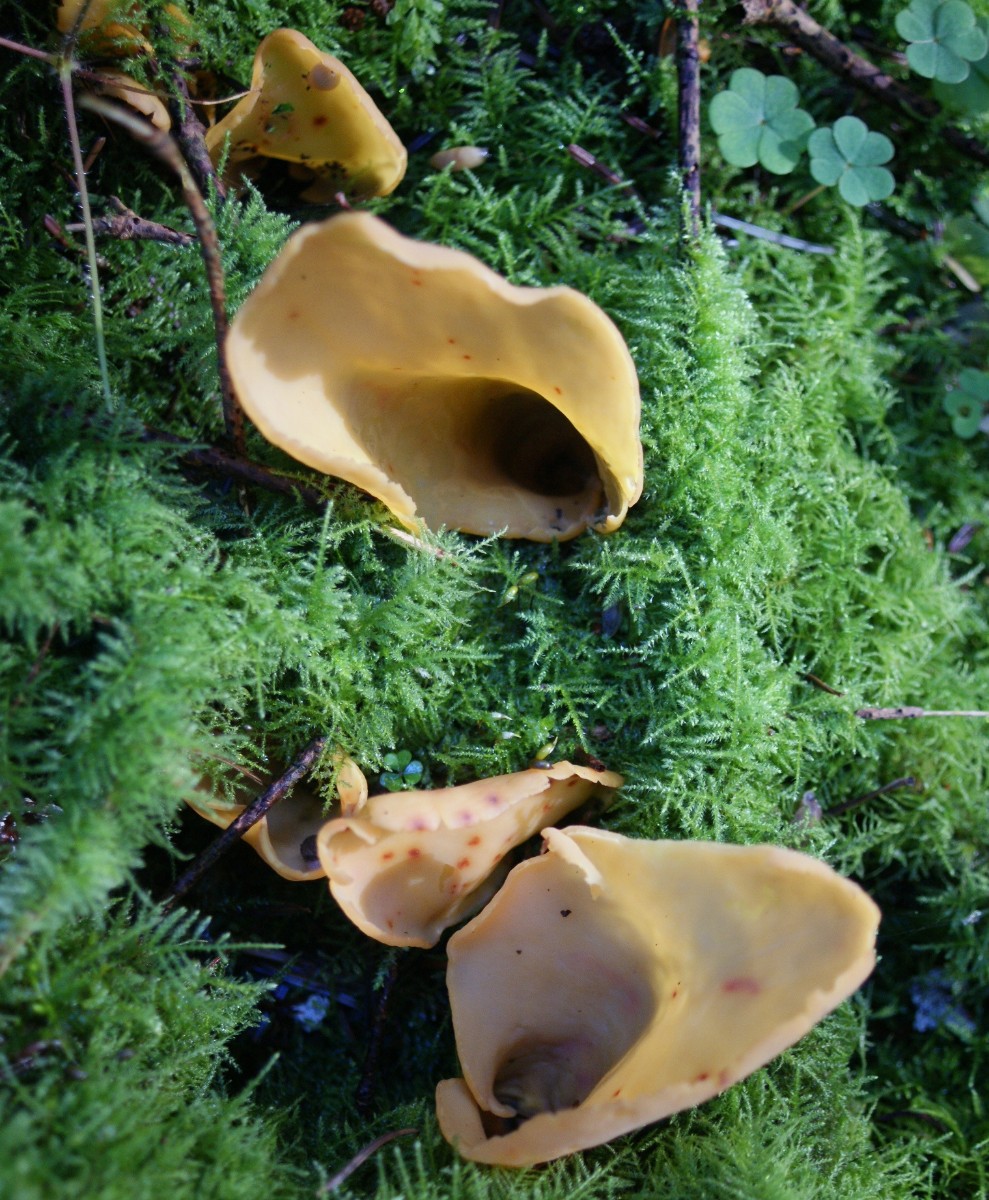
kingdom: Fungi
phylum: Ascomycota
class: Pezizomycetes
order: Pezizales
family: Otideaceae
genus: Otidea
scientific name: Otidea onotica
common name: æsel-ørebæger
